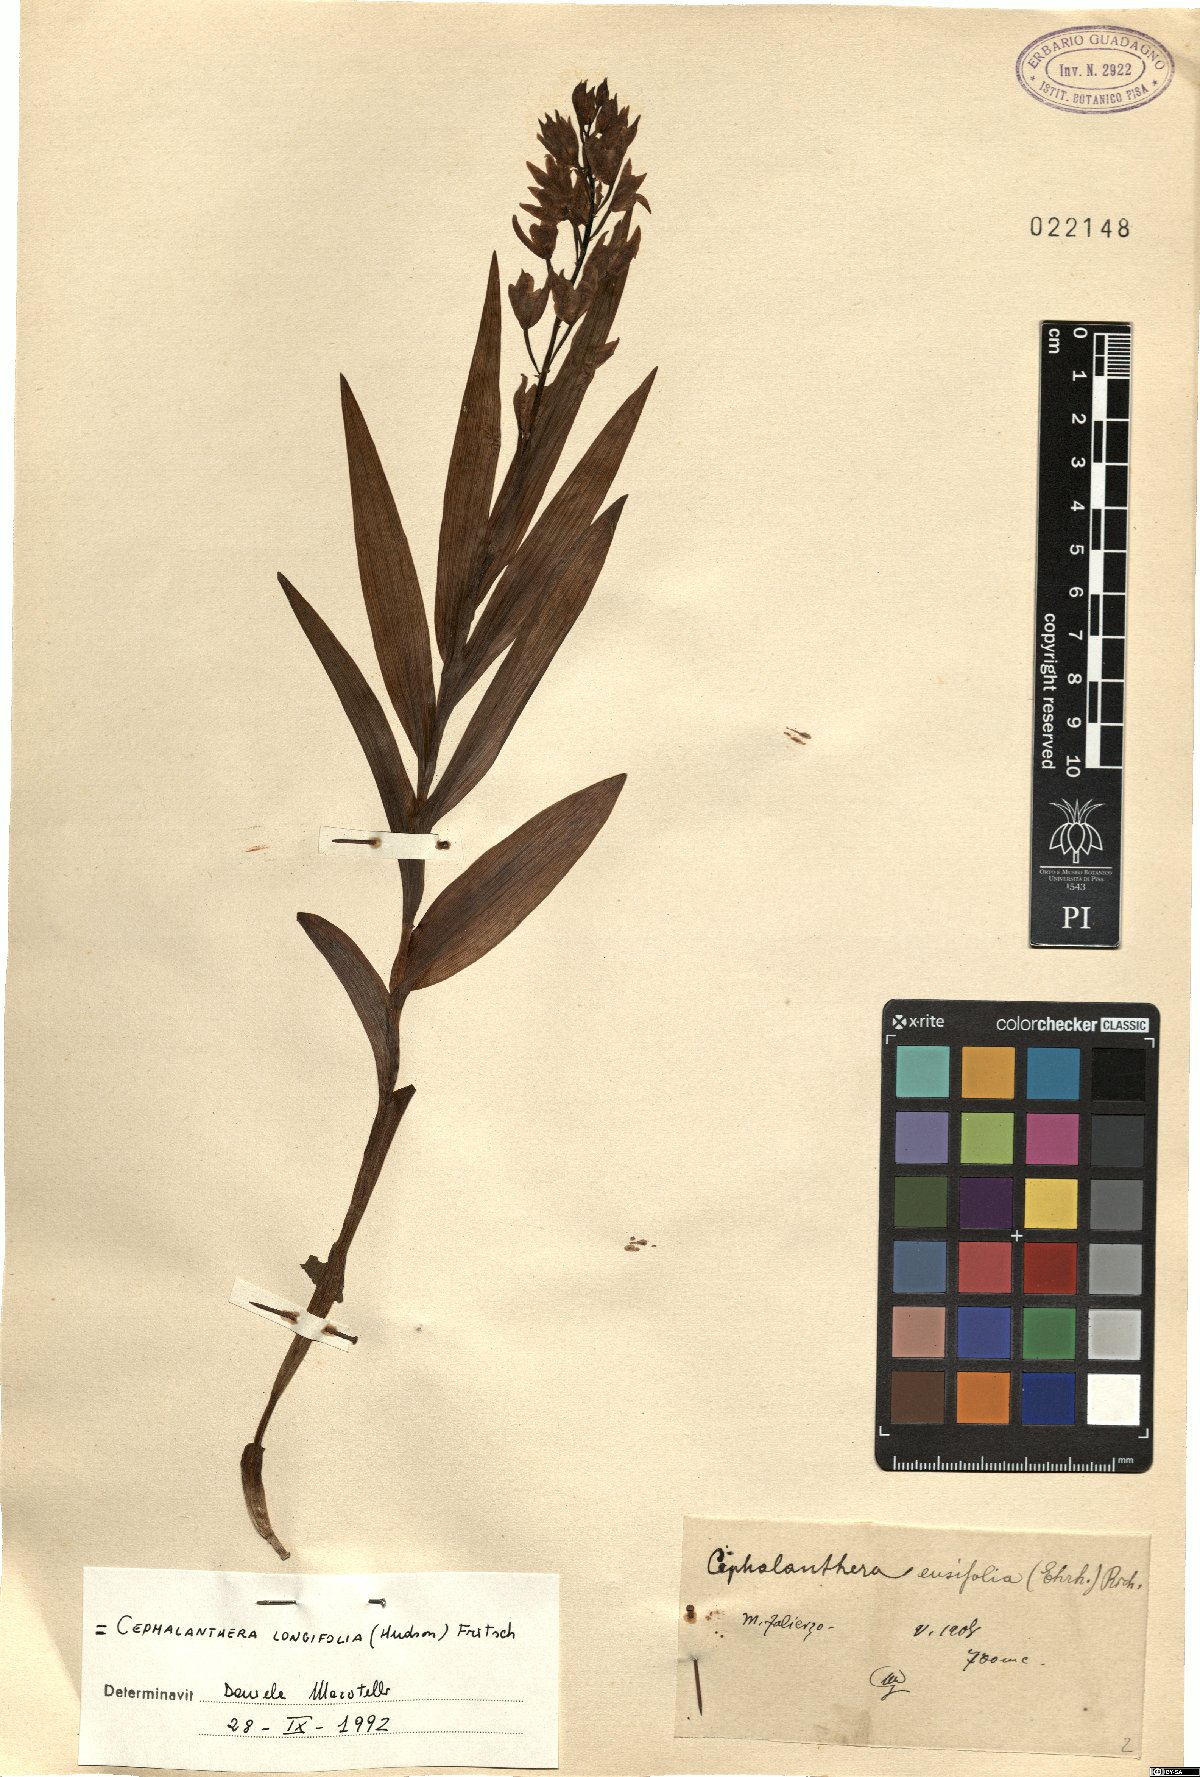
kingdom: Plantae
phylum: Tracheophyta
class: Liliopsida
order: Asparagales
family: Orchidaceae
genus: Cephalanthera
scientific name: Cephalanthera longifolia
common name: Narrow-leaved helleborine
